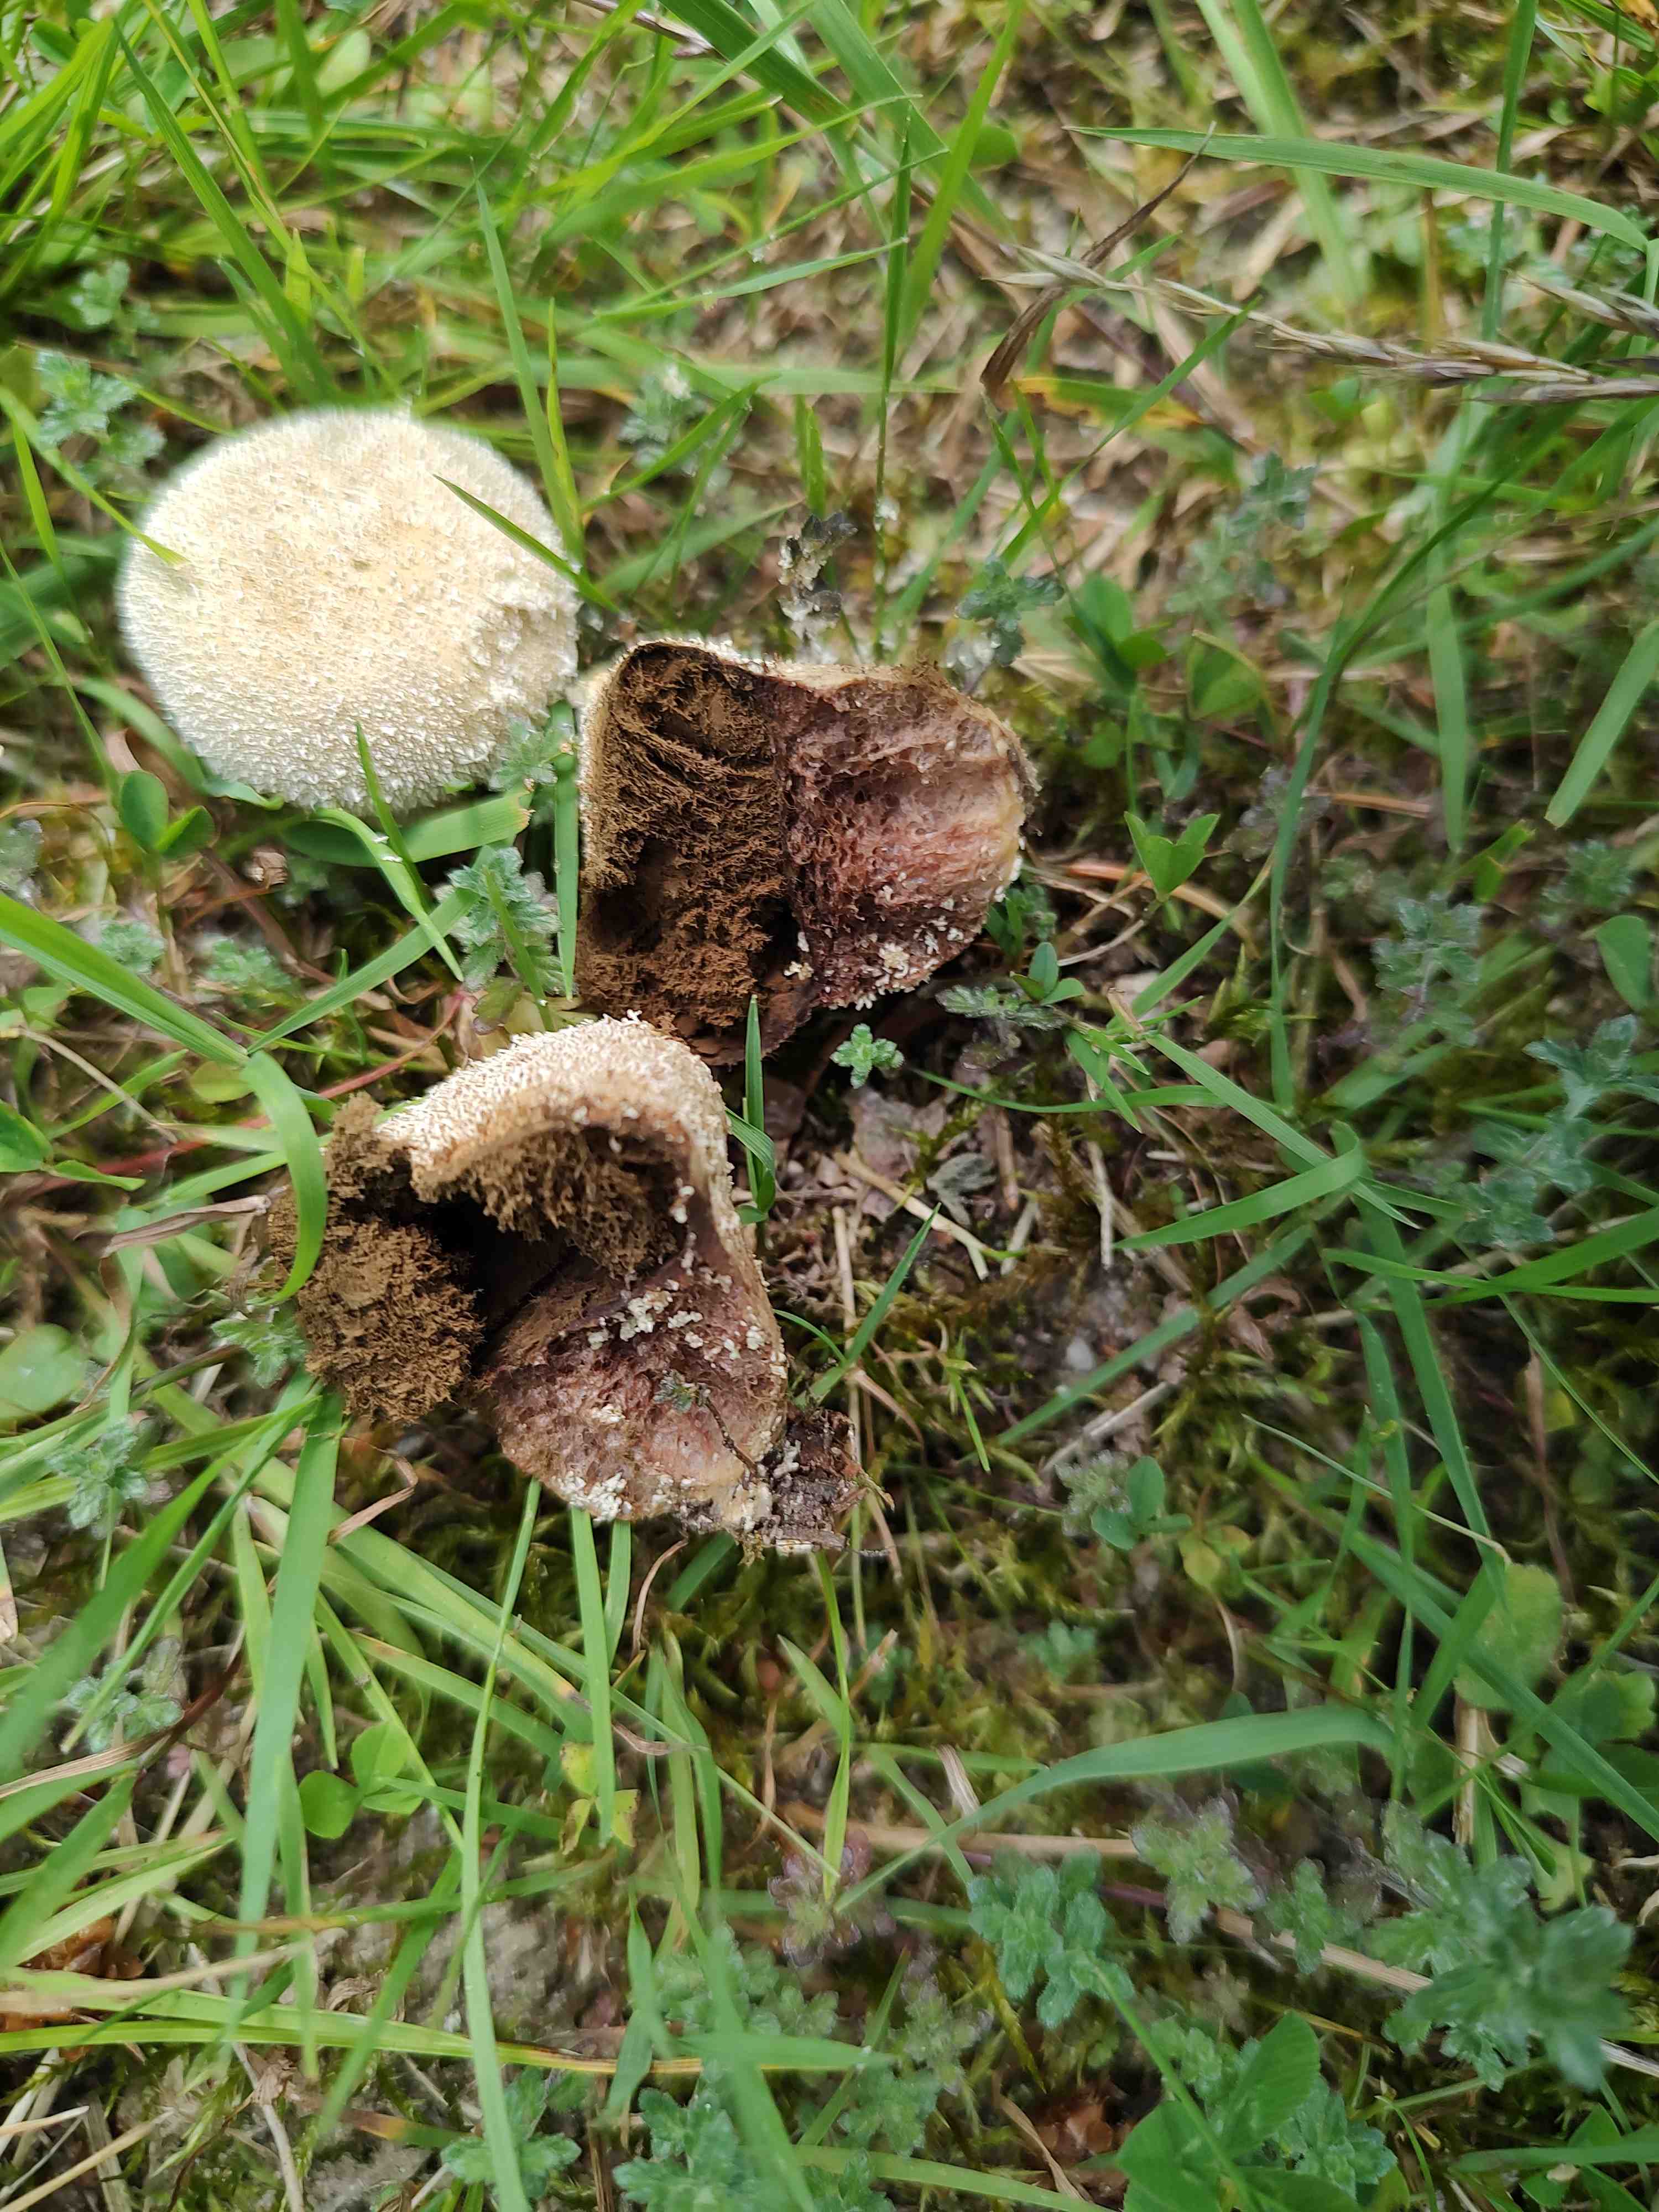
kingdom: Fungi
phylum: Basidiomycota
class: Agaricomycetes
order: Agaricales
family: Lycoperdaceae
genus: Lycoperdon
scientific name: Lycoperdon pratense
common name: flad støvbold
